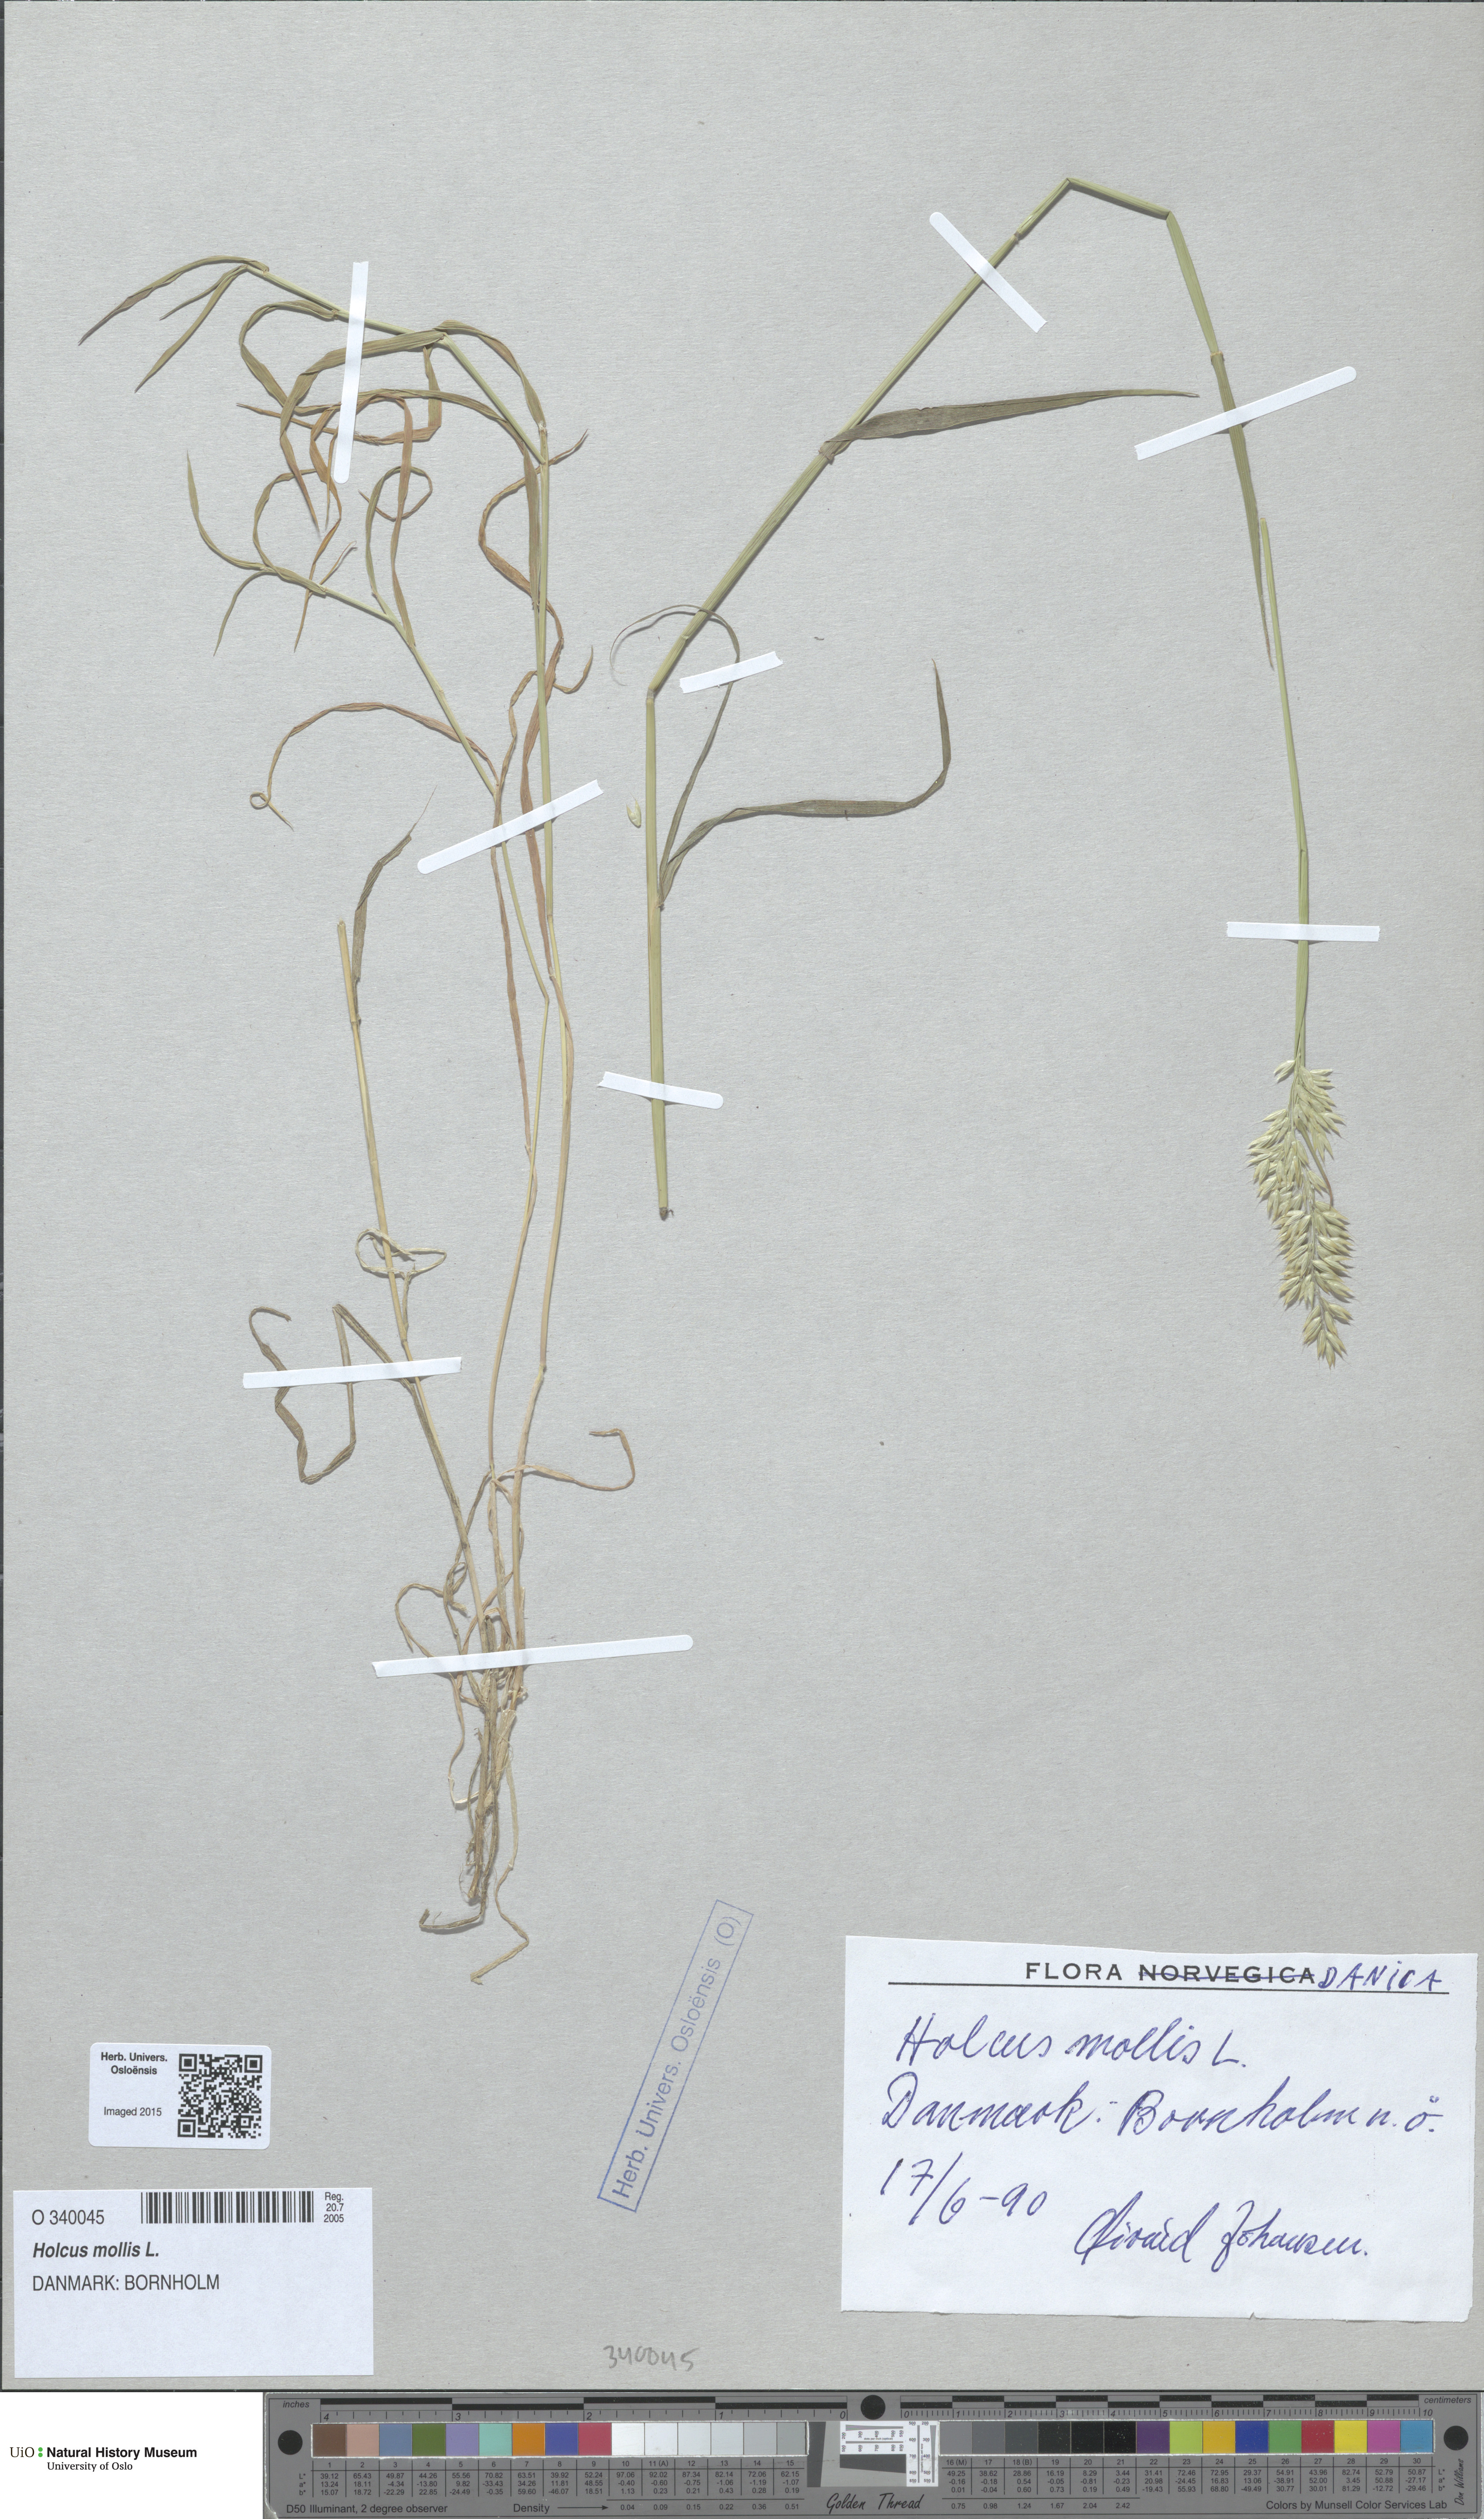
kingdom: Plantae
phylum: Tracheophyta
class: Liliopsida
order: Poales
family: Poaceae
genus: Holcus
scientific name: Holcus mollis
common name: Creeping velvetgrass
